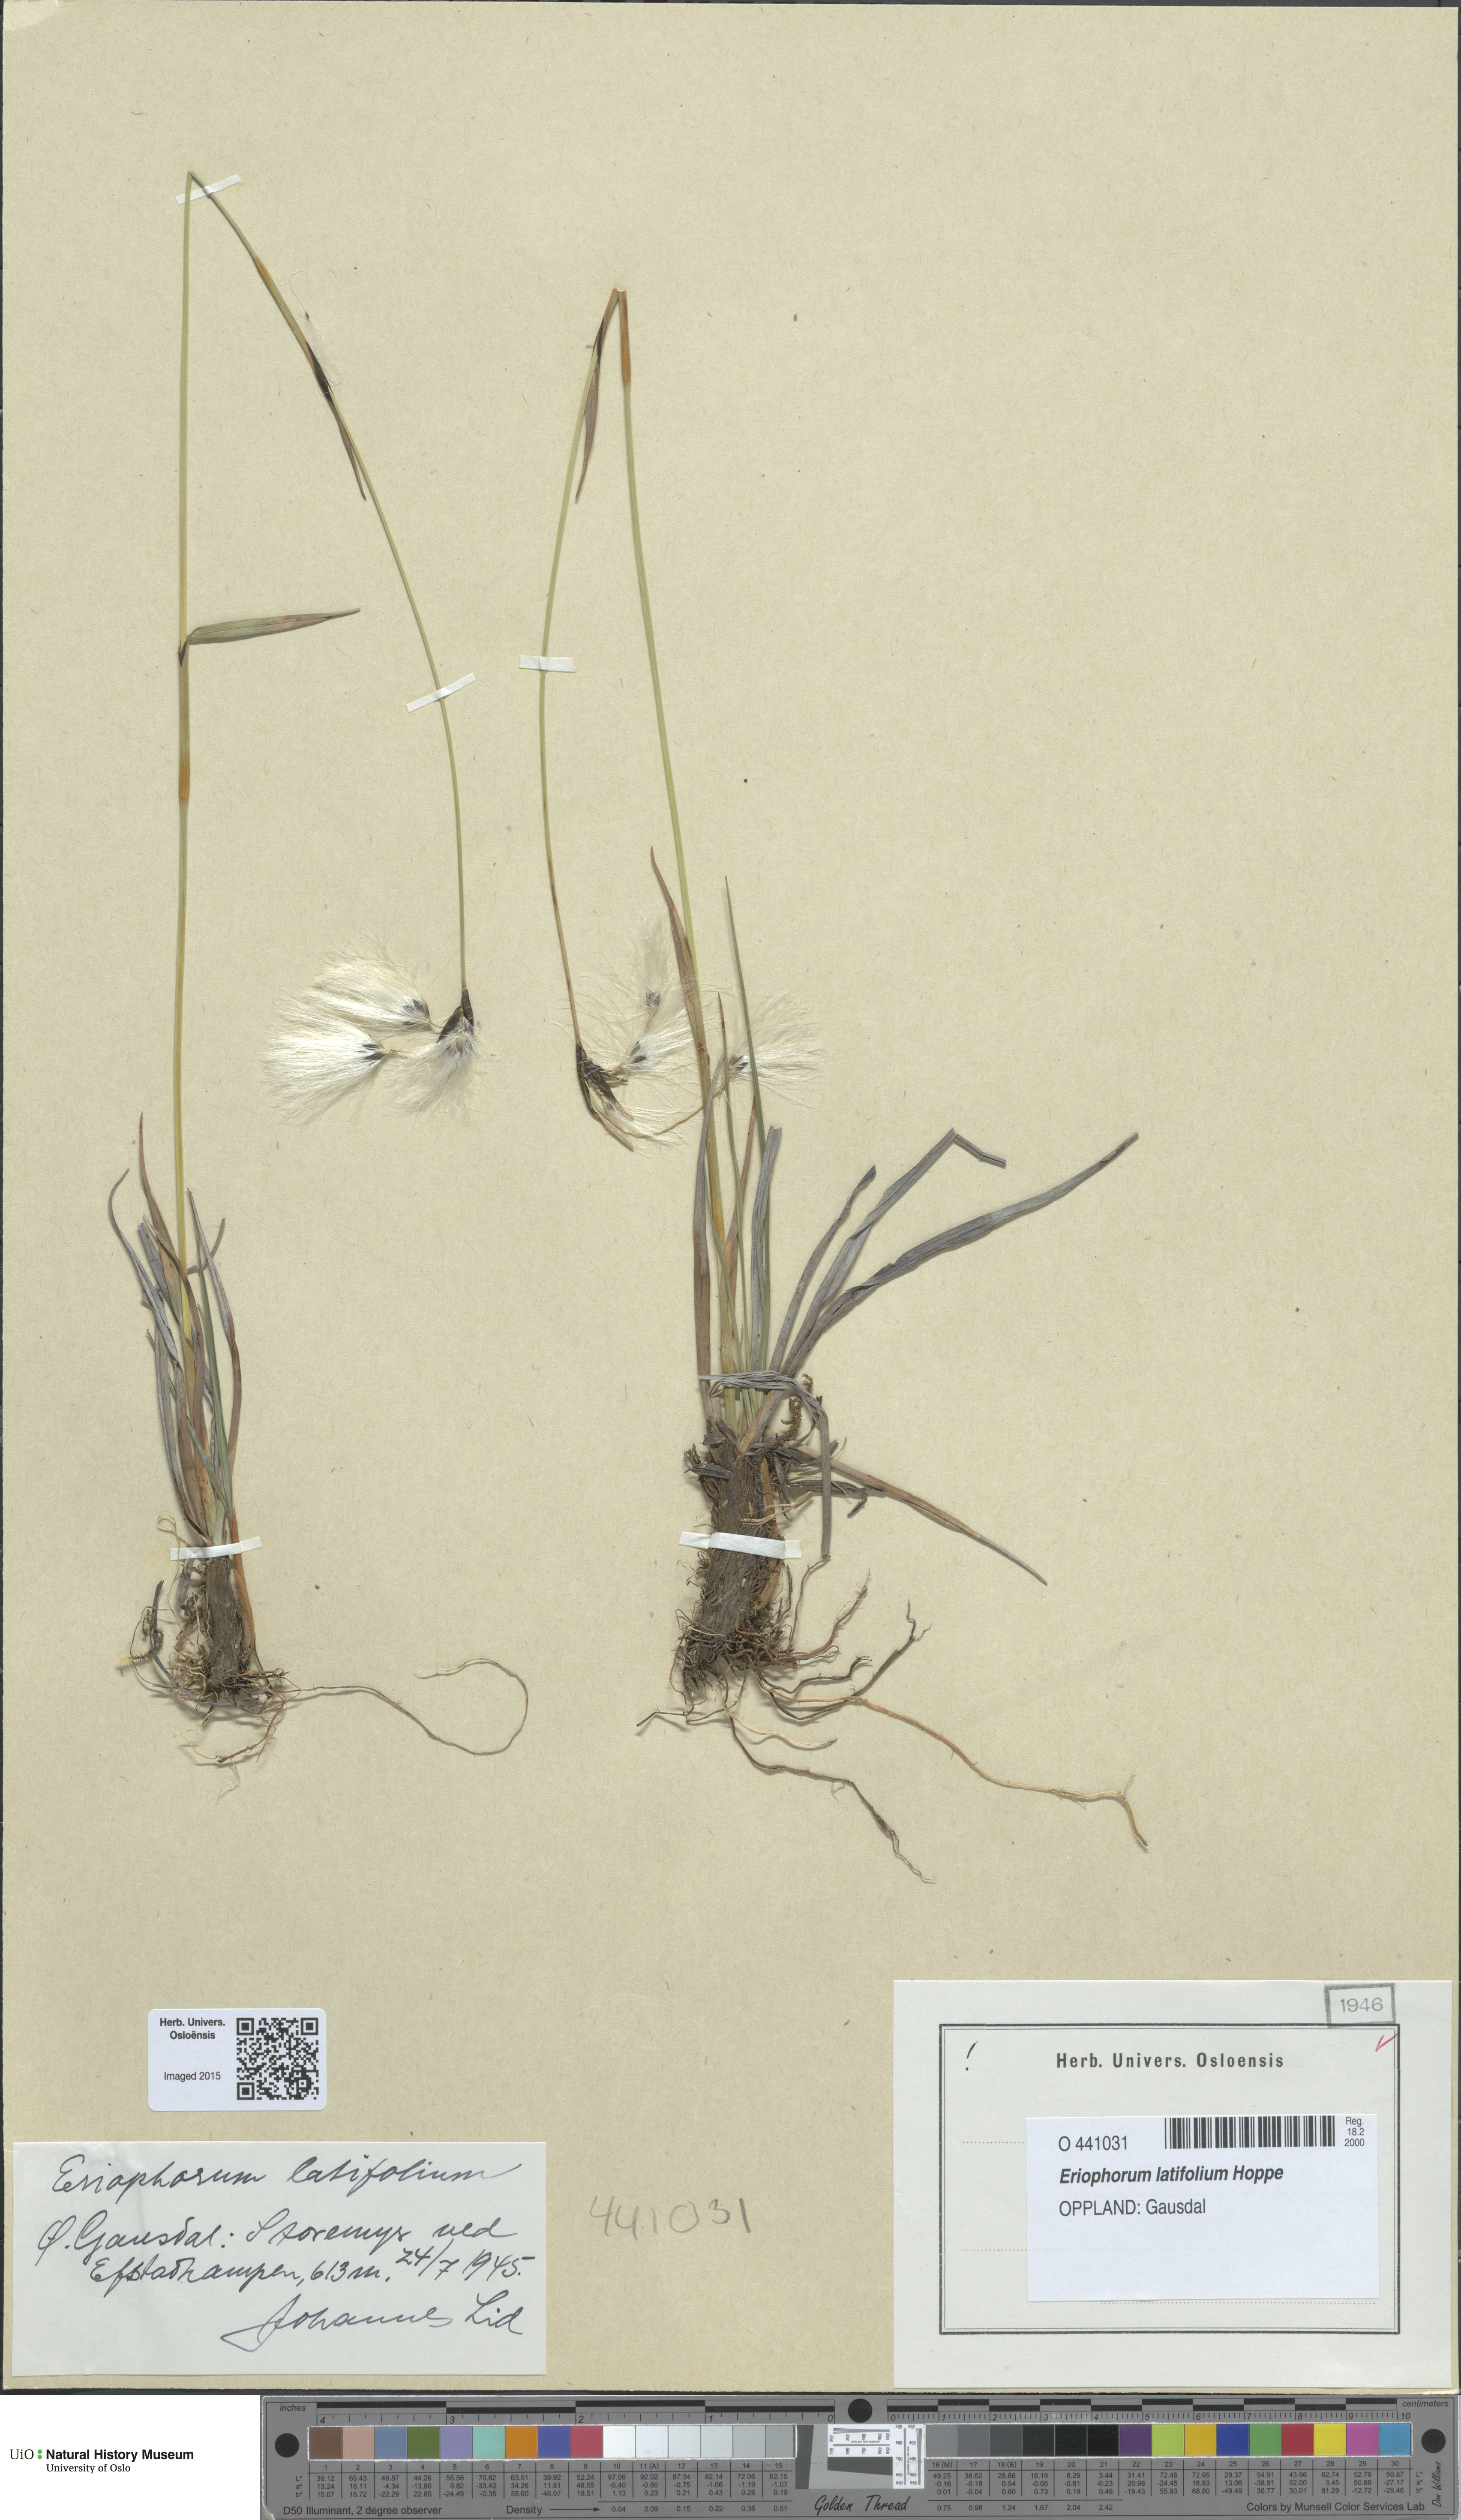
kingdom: Plantae
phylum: Tracheophyta
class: Liliopsida
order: Poales
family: Cyperaceae
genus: Eriophorum
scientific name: Eriophorum latifolium
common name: Broad-leaved cottongrass
